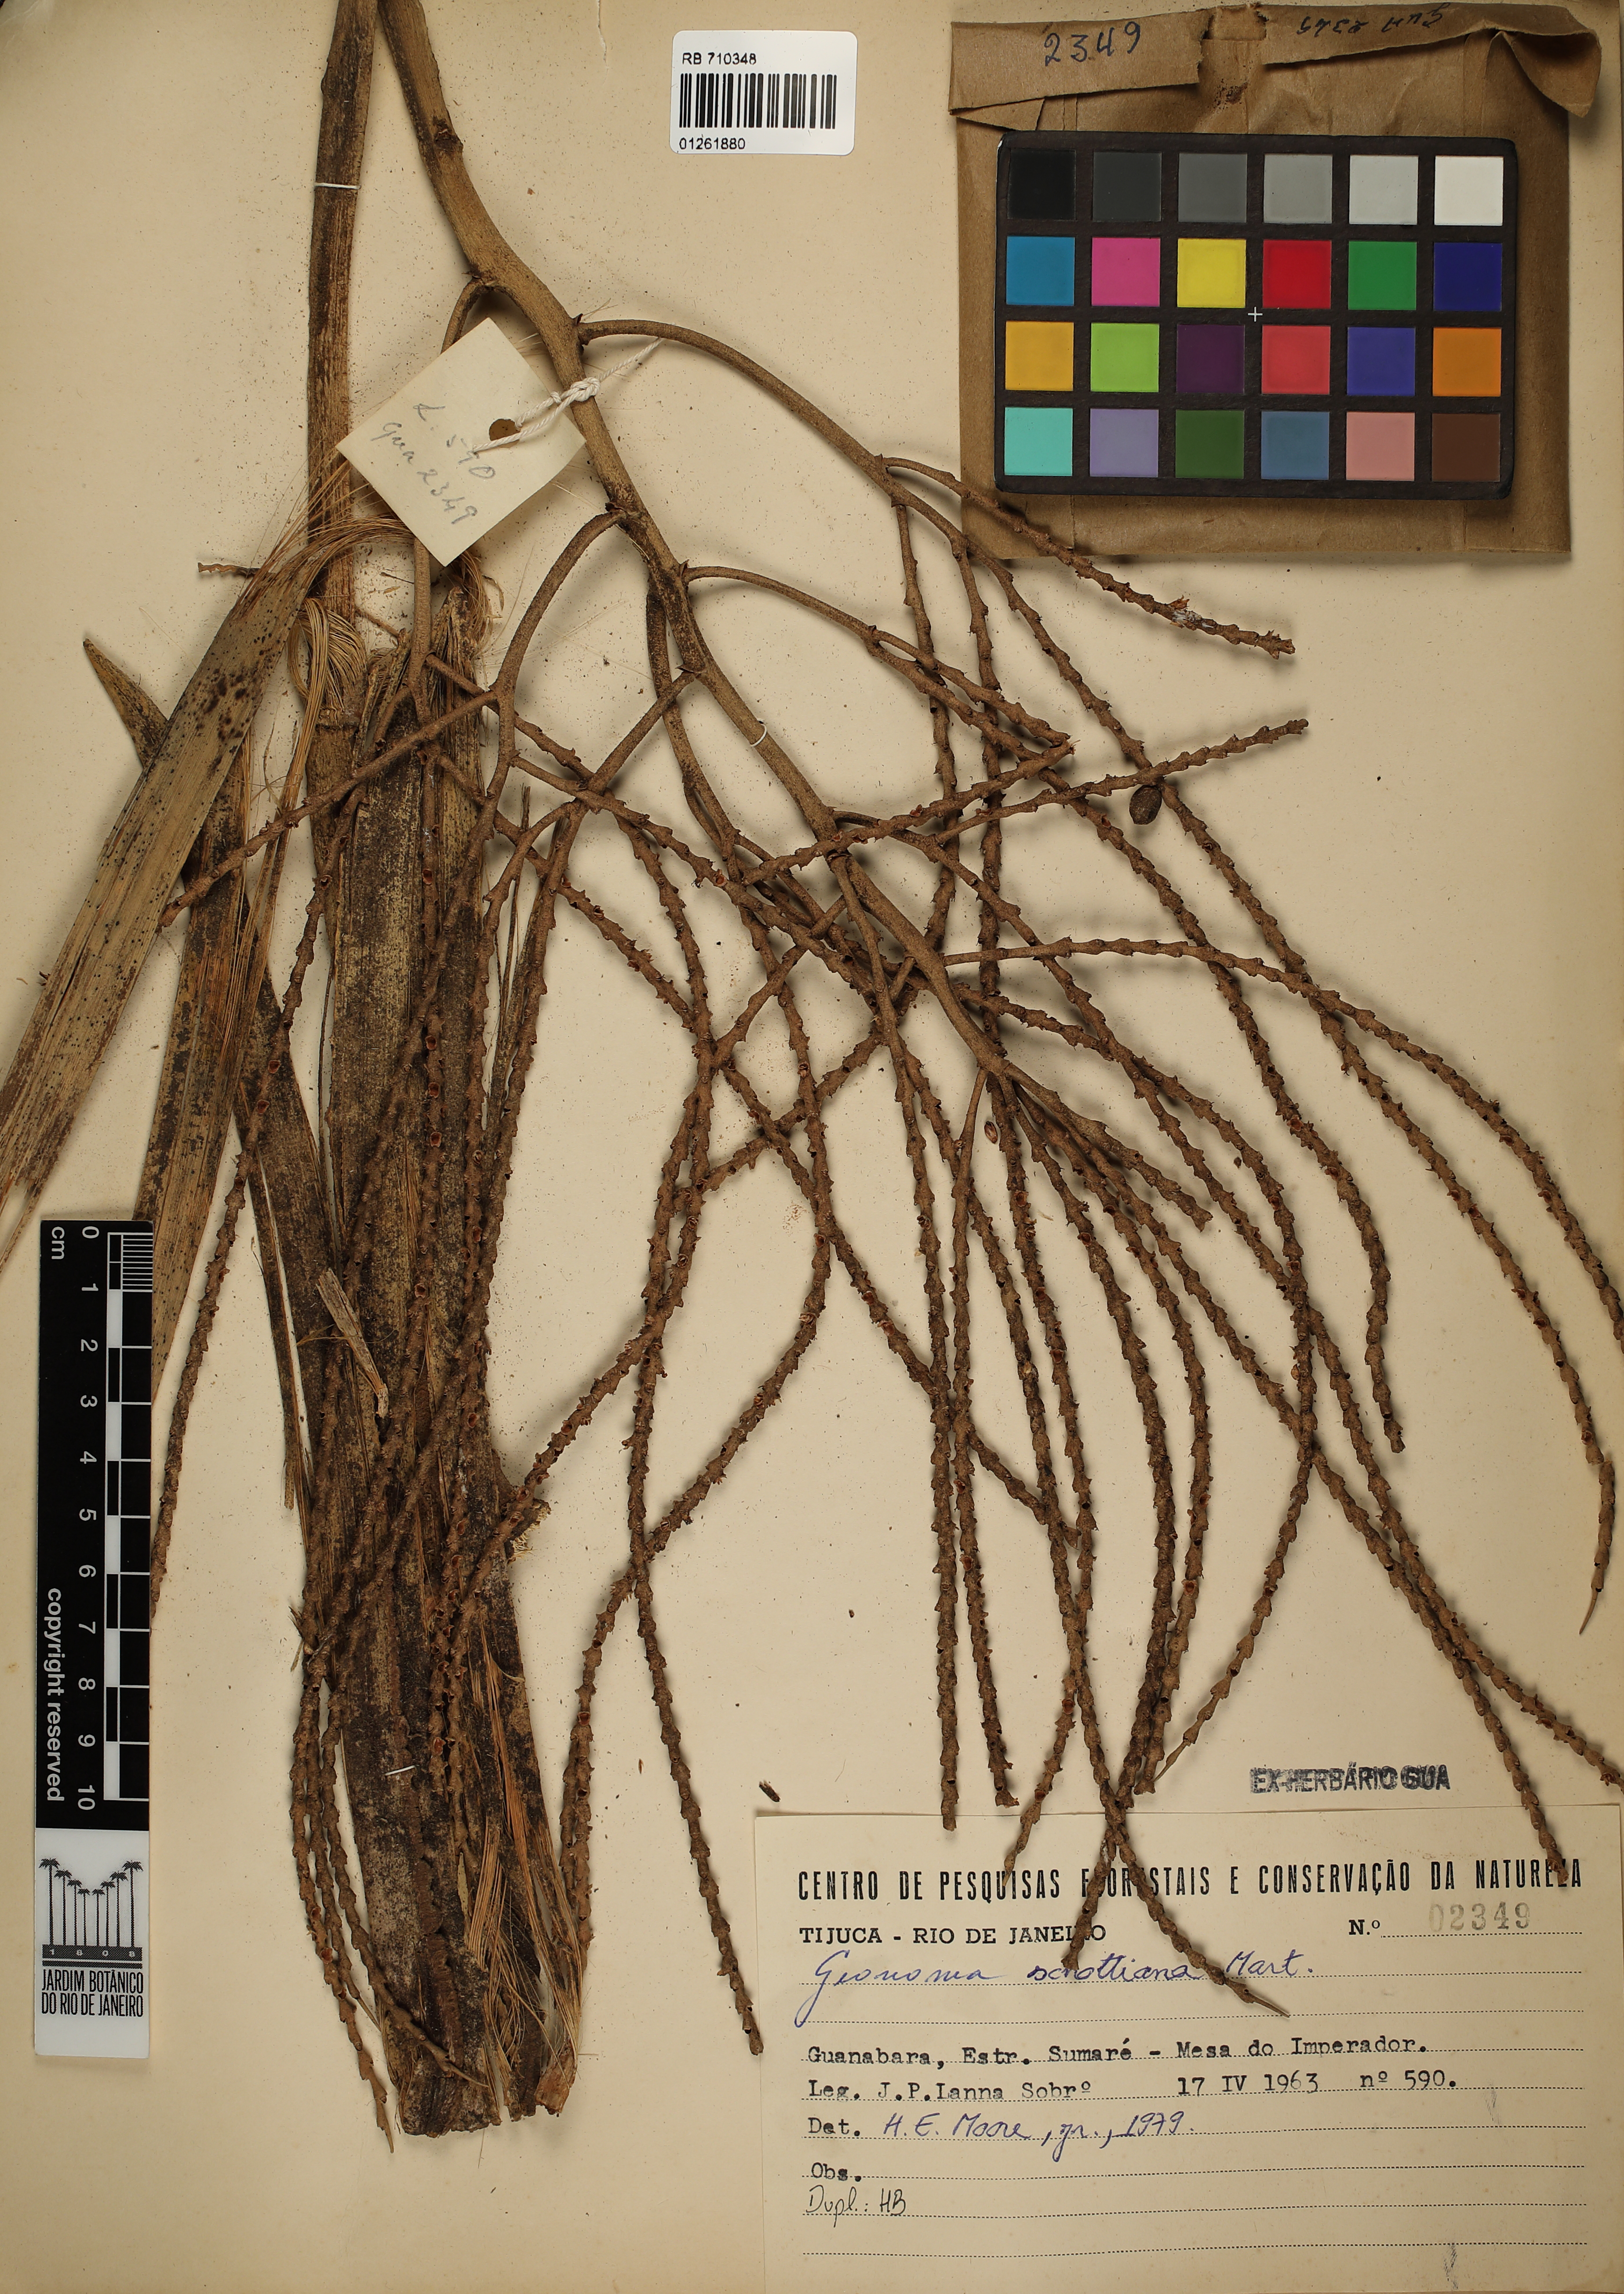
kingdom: Plantae
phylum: Tracheophyta
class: Liliopsida
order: Arecales
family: Arecaceae
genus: Geonoma
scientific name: Geonoma schottiana
